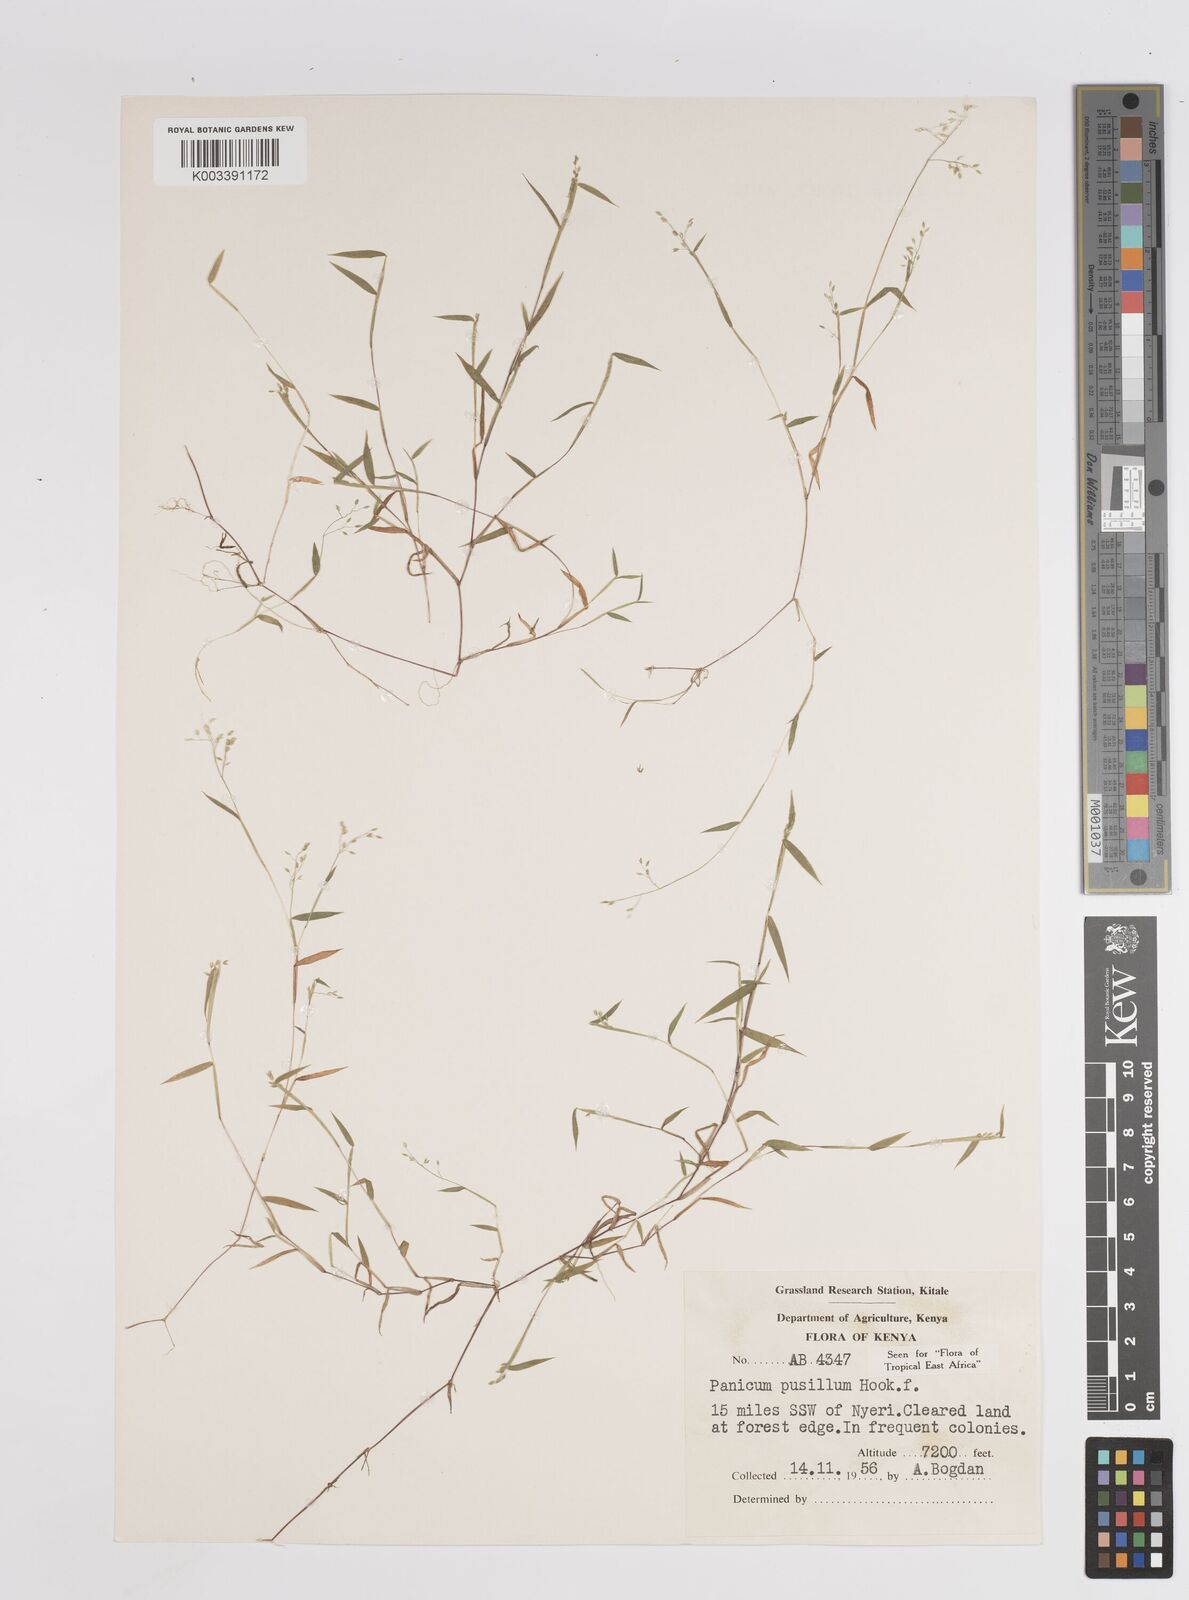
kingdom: Plantae
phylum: Tracheophyta
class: Liliopsida
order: Poales
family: Poaceae
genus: Panicum
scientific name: Panicum pusillum
